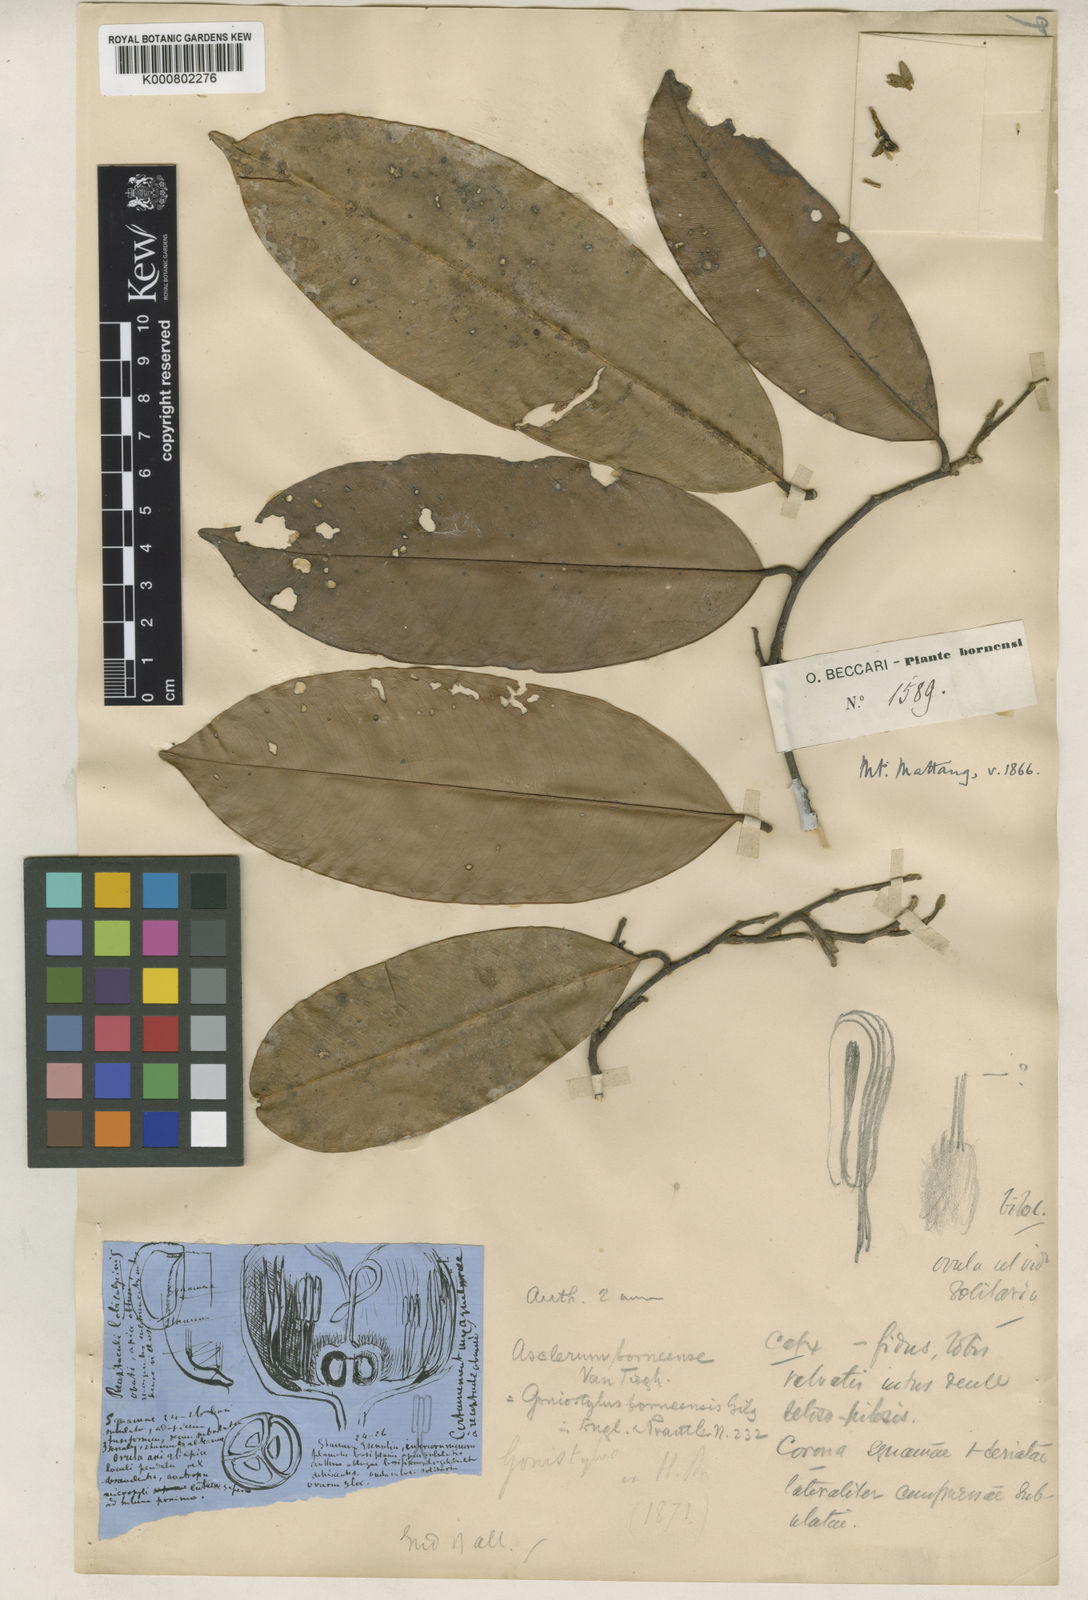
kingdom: Plantae
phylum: Tracheophyta
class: Magnoliopsida
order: Malvales
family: Thymelaeaceae
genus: Gonystylus
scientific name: Gonystylus borneensis
